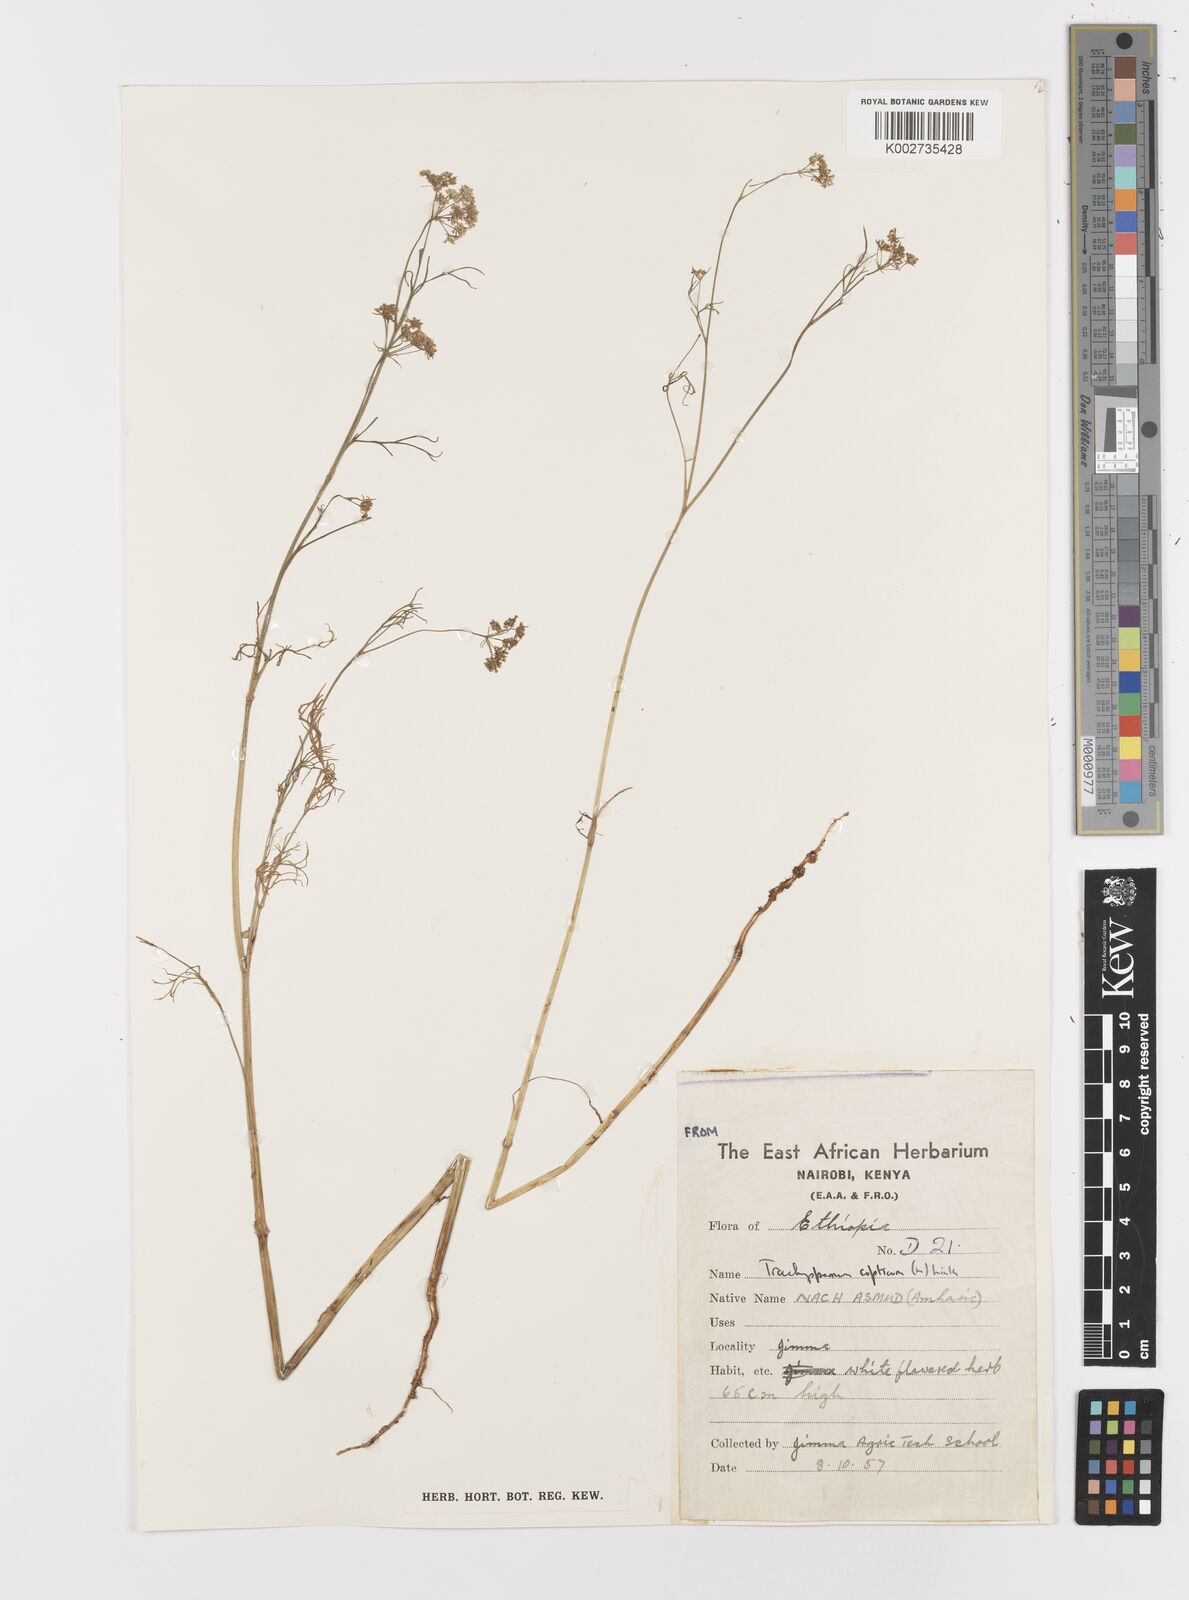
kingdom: Plantae
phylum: Tracheophyta
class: Magnoliopsida
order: Apiales
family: Apiaceae
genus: Trachyspermum
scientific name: Trachyspermum ammi
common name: Ajowan
